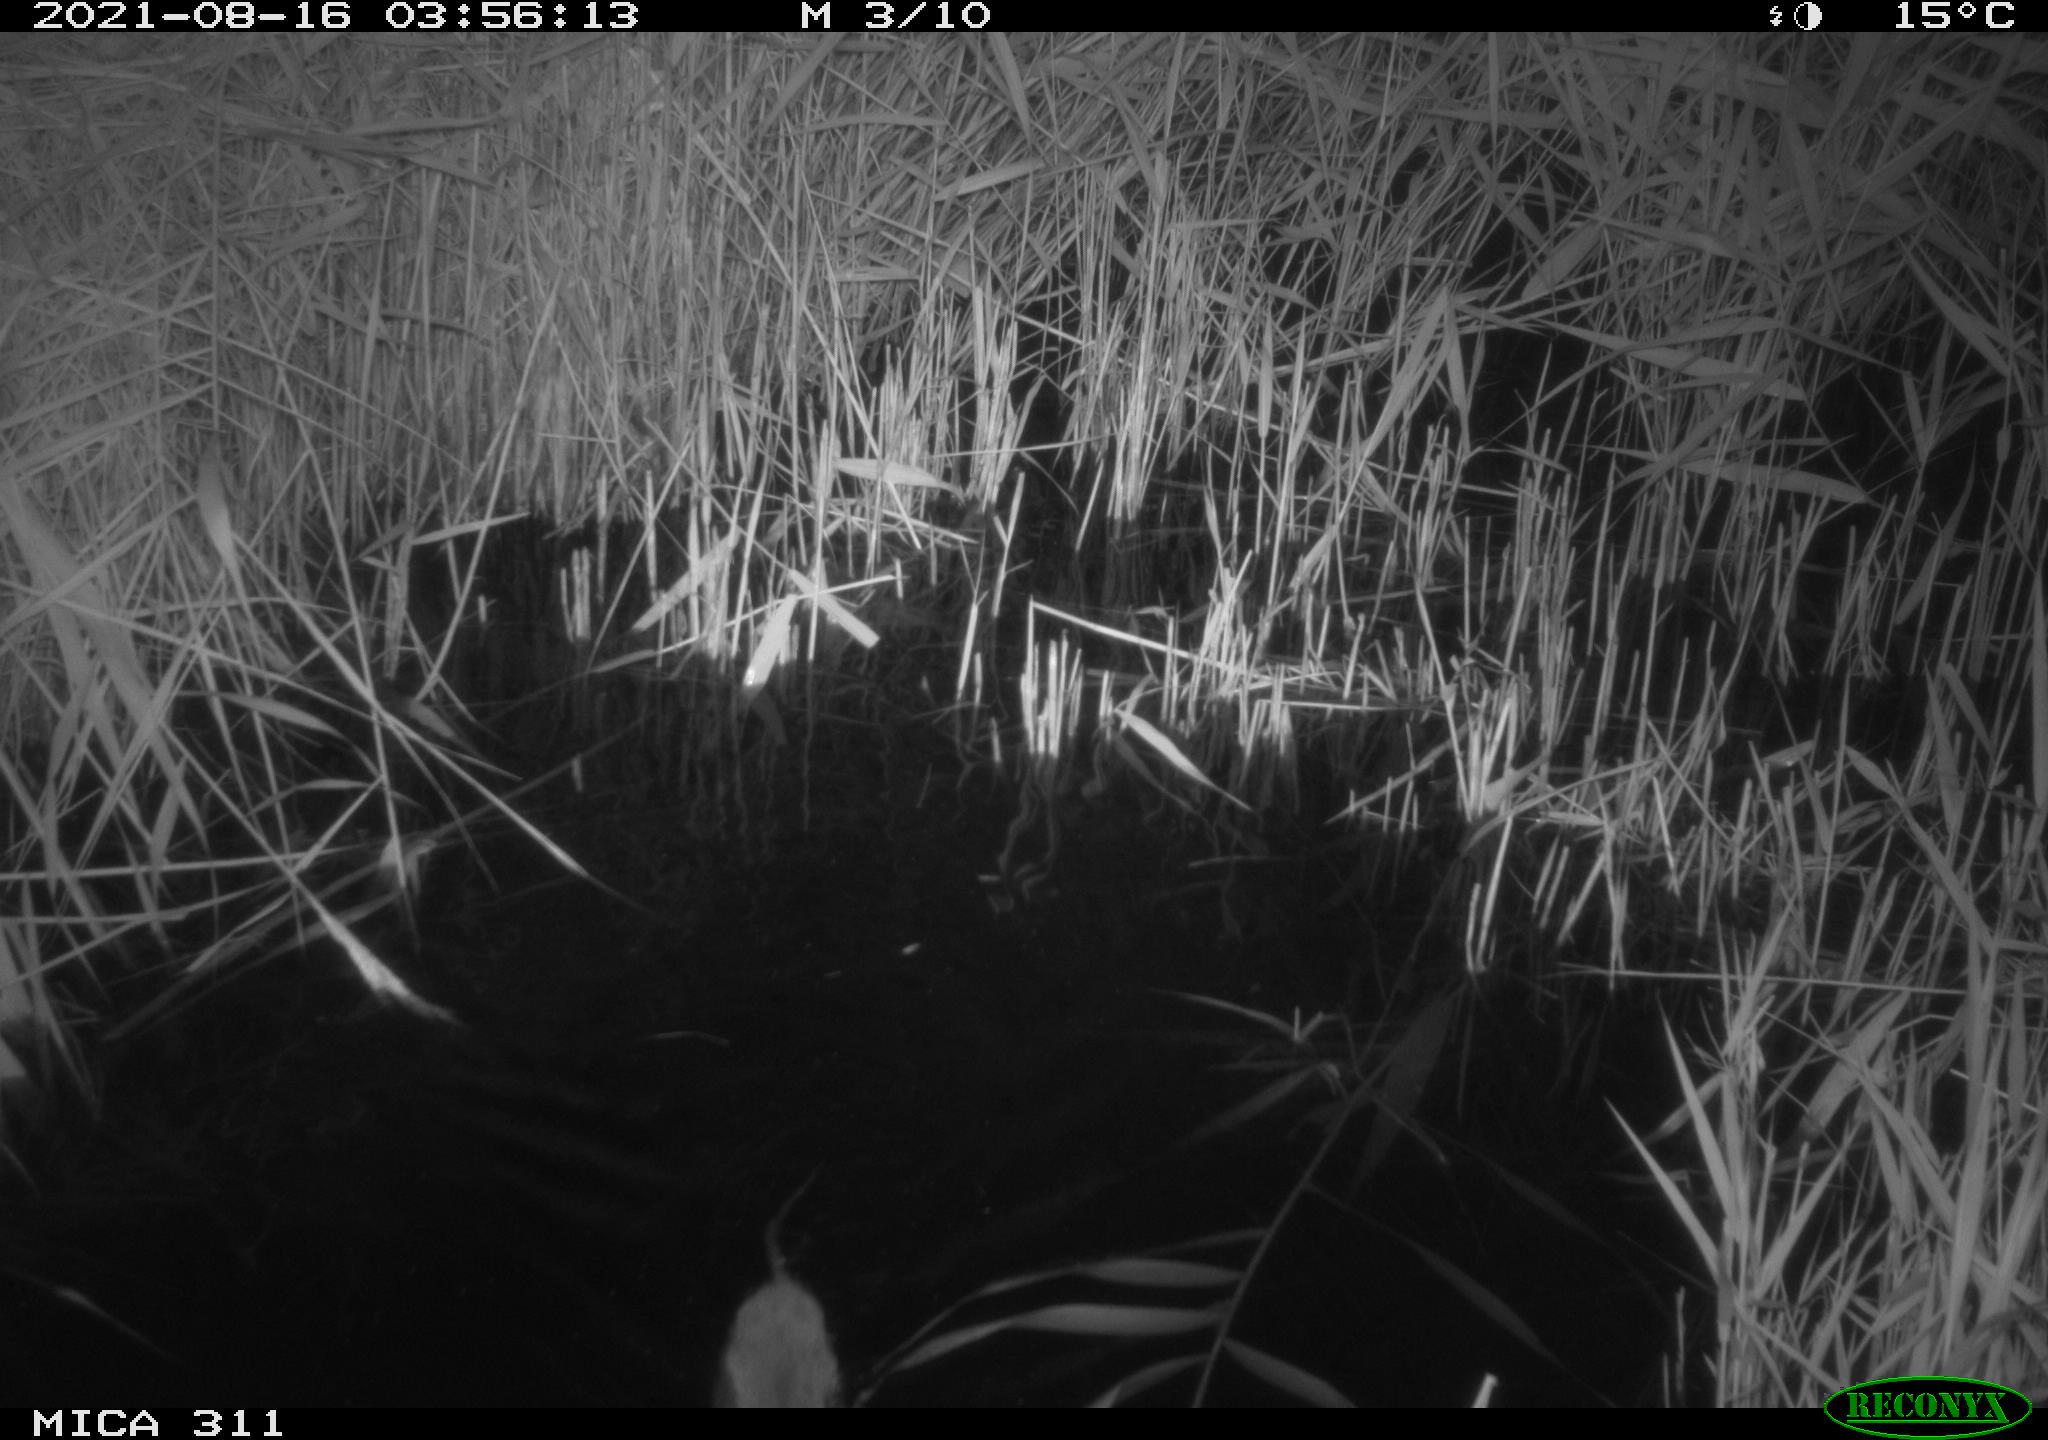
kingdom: Animalia
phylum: Chordata
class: Mammalia
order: Rodentia
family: Muridae
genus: Rattus
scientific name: Rattus norvegicus
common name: Brown rat
